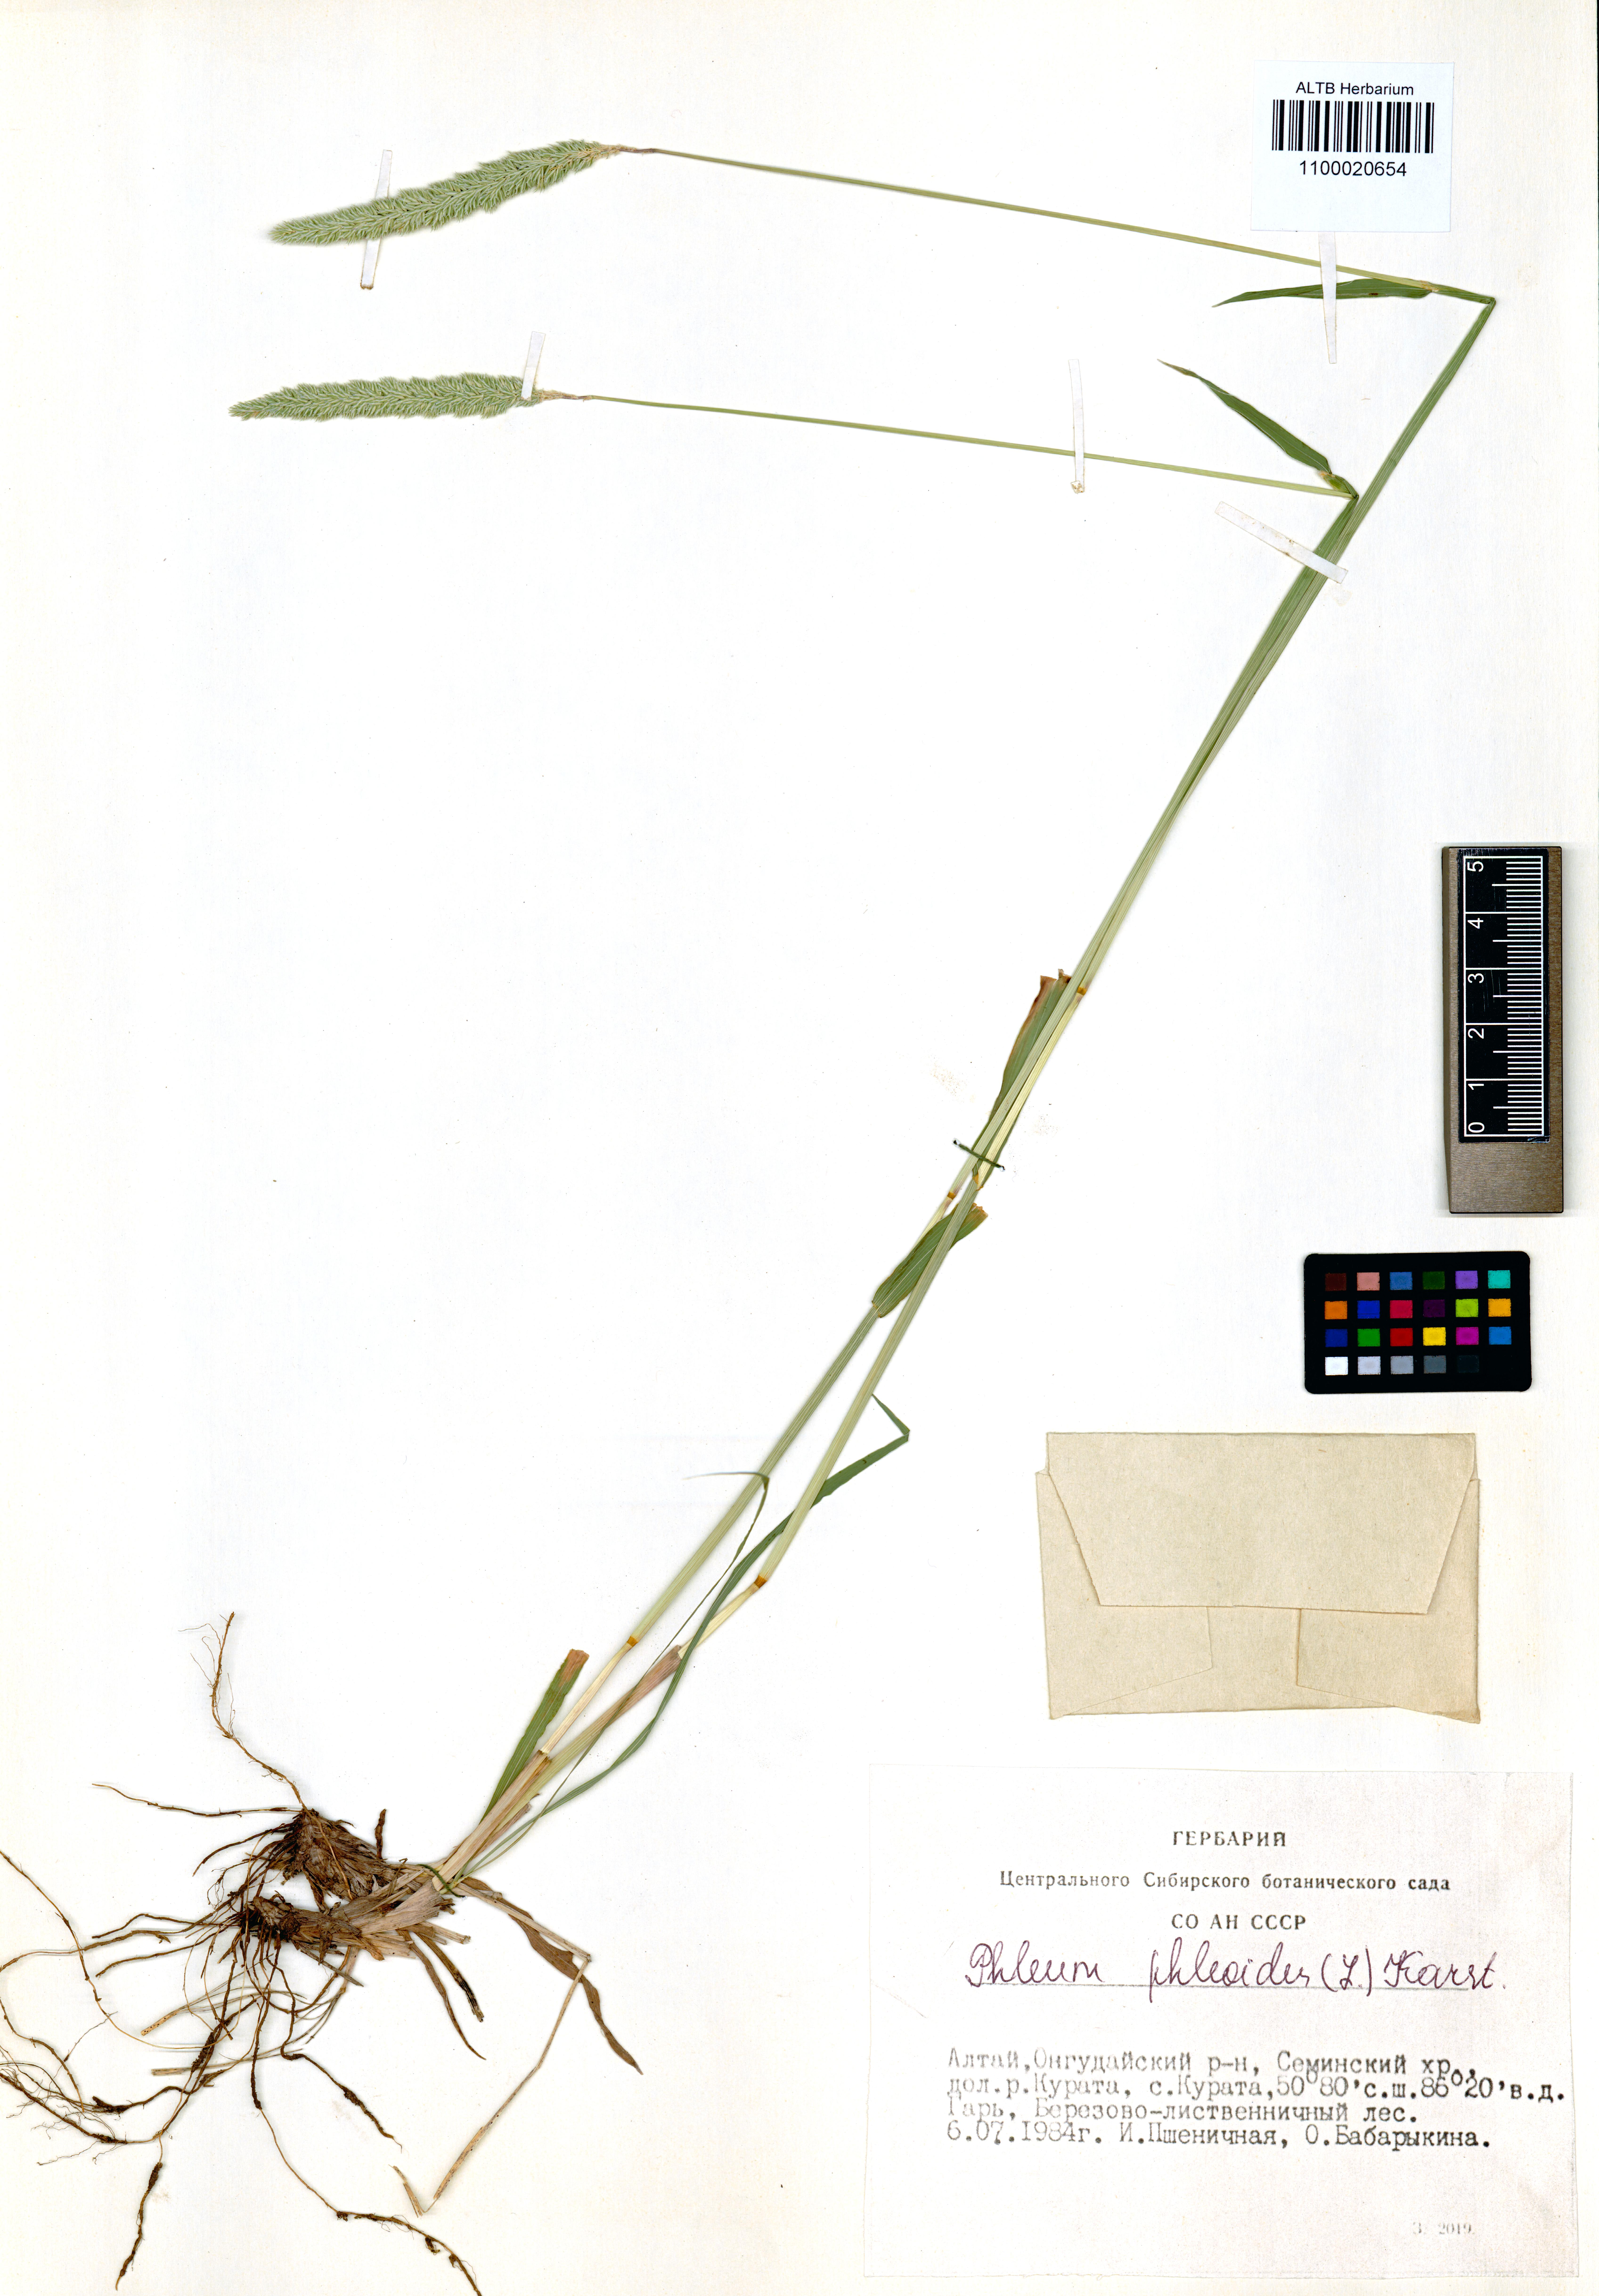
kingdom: Plantae
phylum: Tracheophyta
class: Liliopsida
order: Poales
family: Poaceae
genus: Phleum
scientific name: Phleum phleoides
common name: Purple-stem cat's-tail
